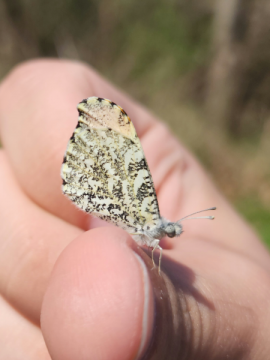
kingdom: Animalia
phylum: Arthropoda
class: Insecta
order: Lepidoptera
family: Pieridae
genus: Anthocharis
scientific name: Anthocharis midea
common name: Falcate Orangetip
